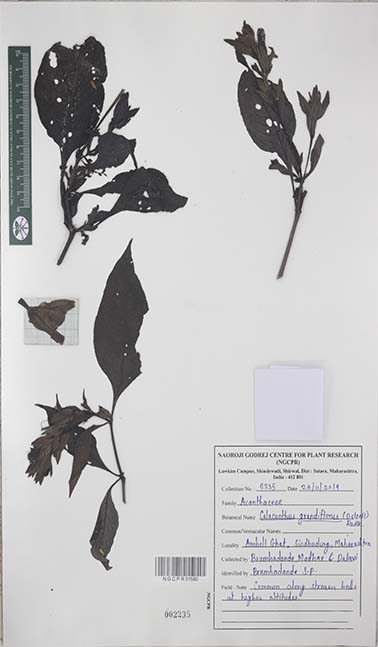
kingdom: Plantae
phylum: Tracheophyta
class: Magnoliopsida
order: Lamiales
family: Acanthaceae
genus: Calacanthus
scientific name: Calacanthus grandiflorus
